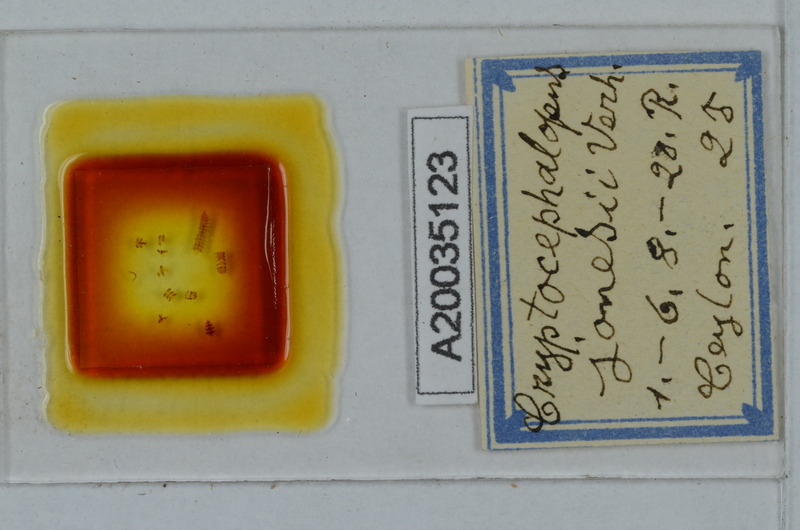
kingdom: Animalia
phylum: Arthropoda
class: Diplopoda
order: Polydesmida
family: Pyrgodesmidae
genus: Cryptocephalopus
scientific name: Cryptocephalopus jonesii
